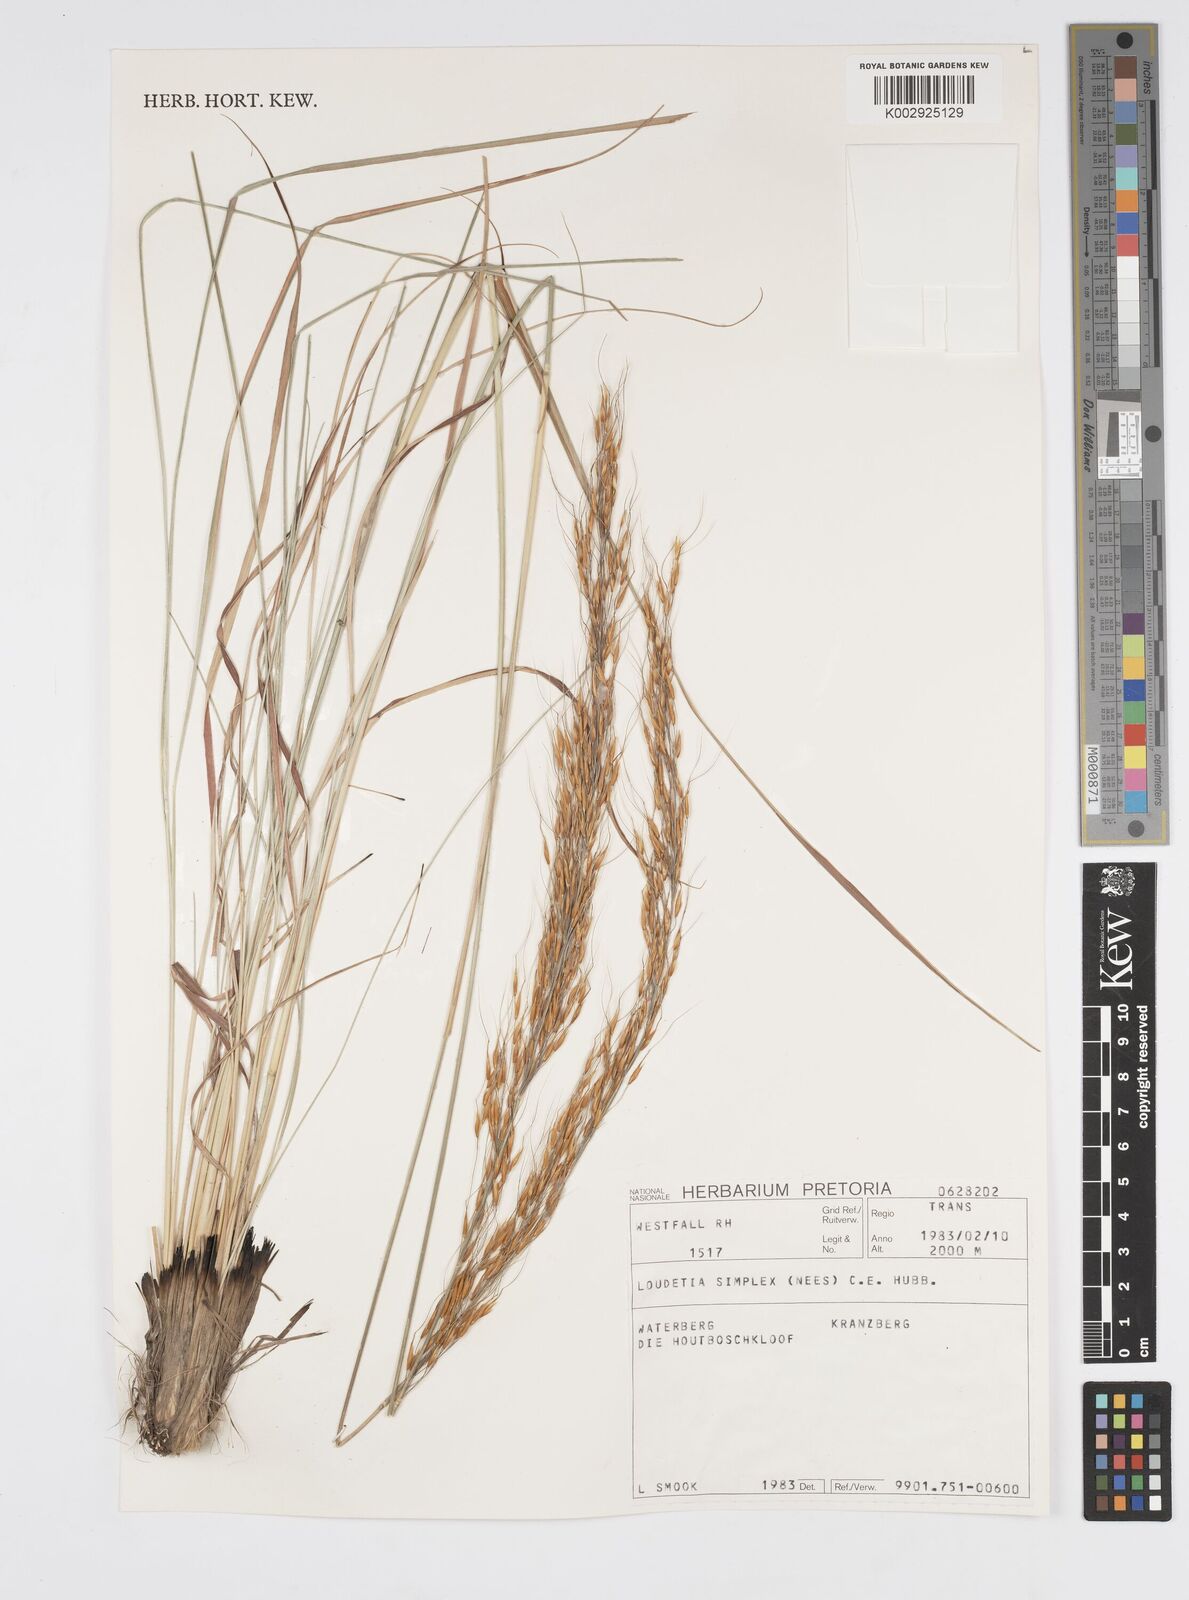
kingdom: Plantae
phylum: Tracheophyta
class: Liliopsida
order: Poales
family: Poaceae
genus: Loudetia
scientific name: Loudetia simplex
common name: Common russet grass
